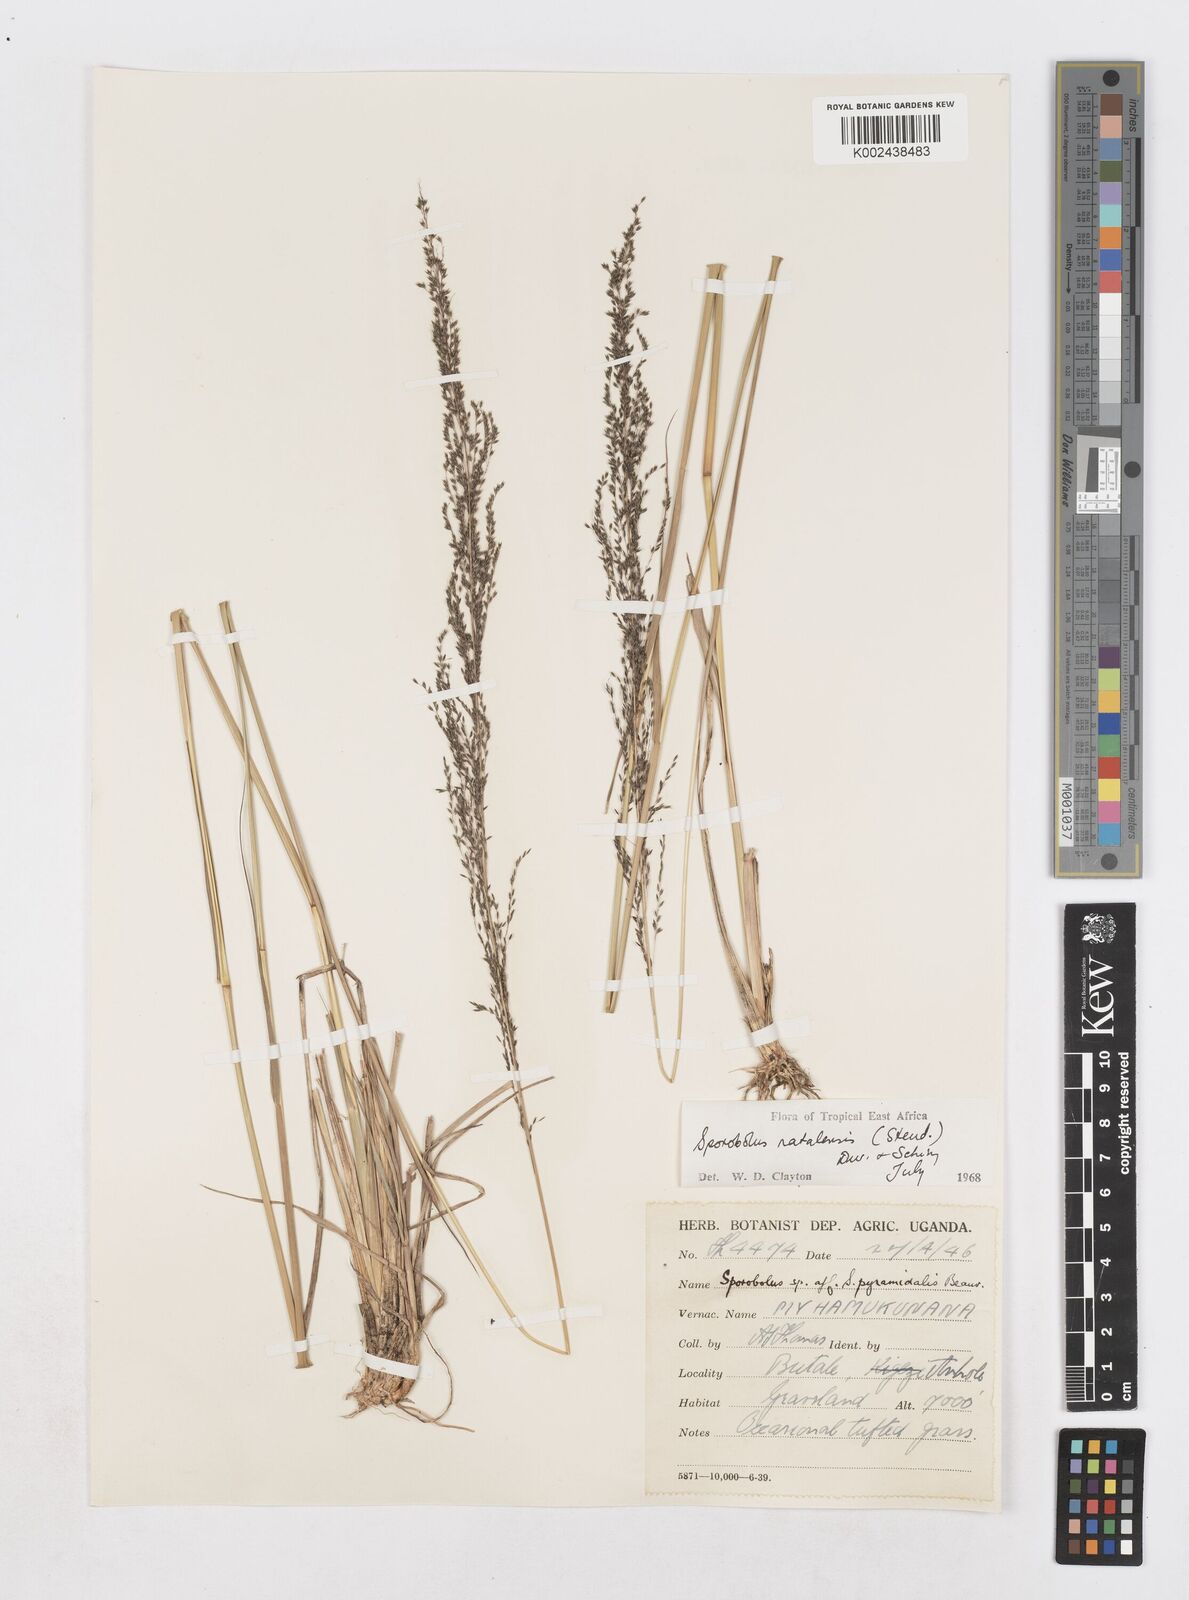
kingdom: Plantae
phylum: Tracheophyta
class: Liliopsida
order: Poales
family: Poaceae
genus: Sporobolus
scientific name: Sporobolus natalensis
